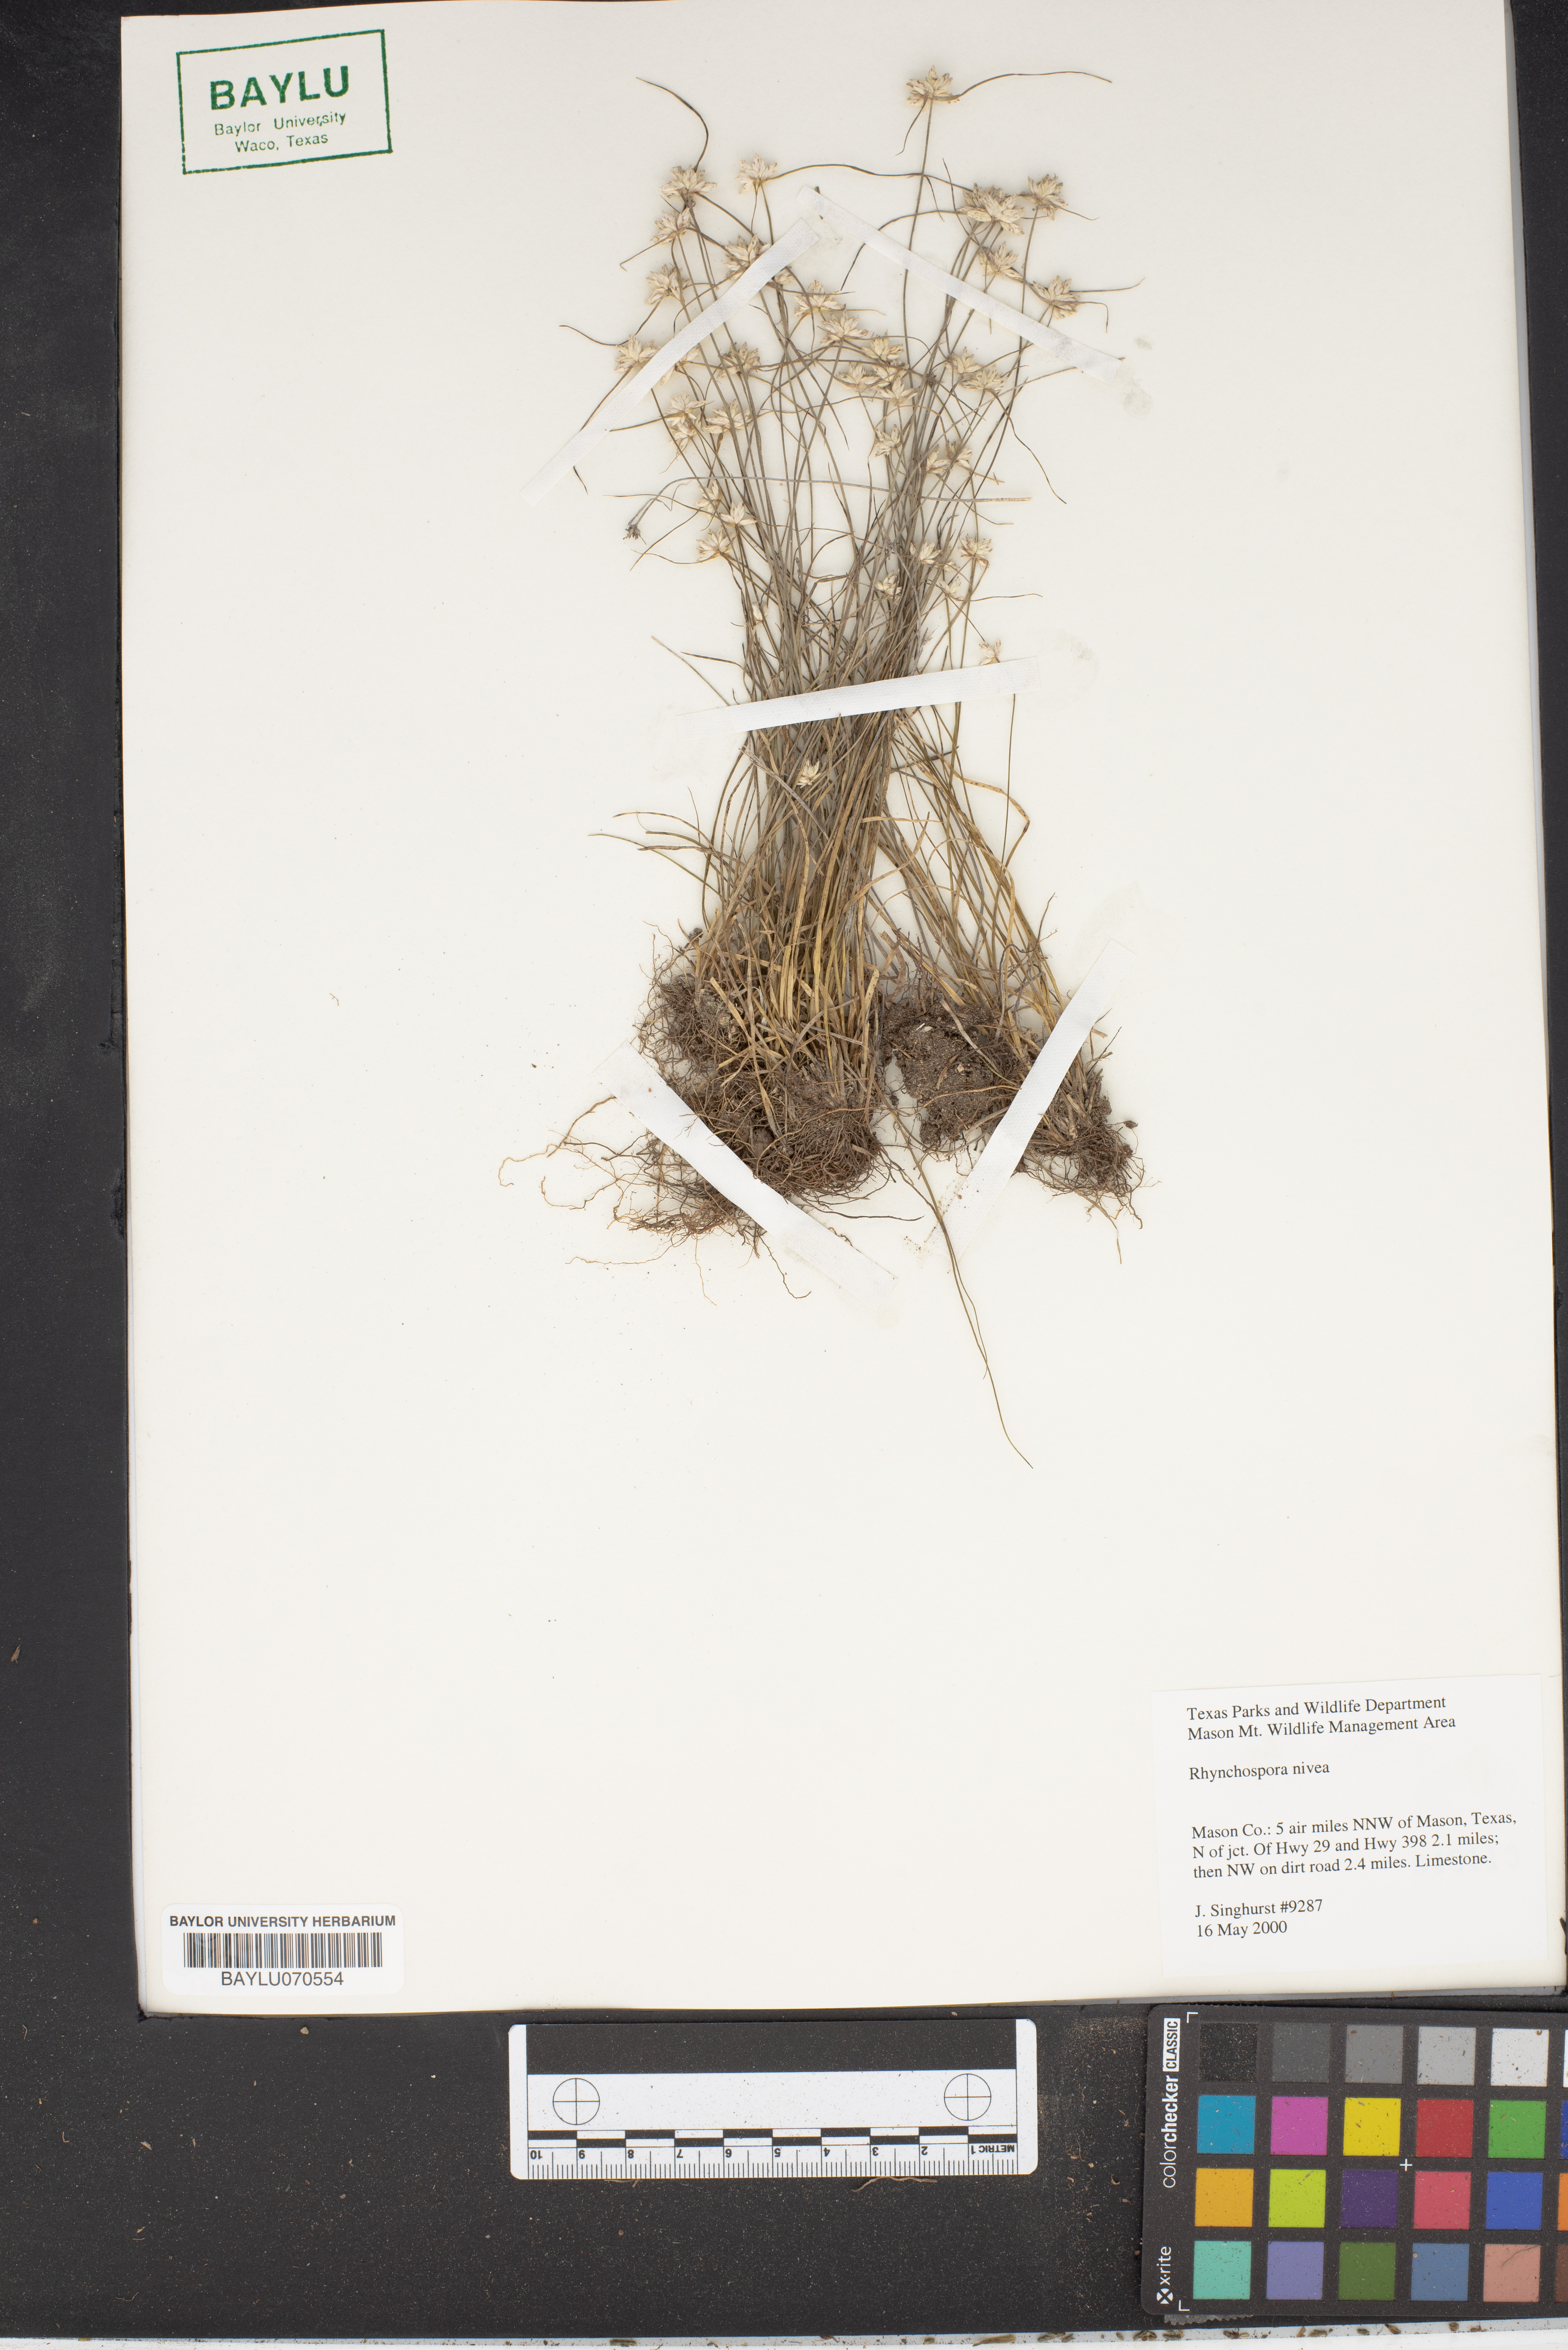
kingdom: Plantae
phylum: Tracheophyta
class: Liliopsida
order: Poales
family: Cyperaceae
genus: Rhynchospora
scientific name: Rhynchospora nivea
